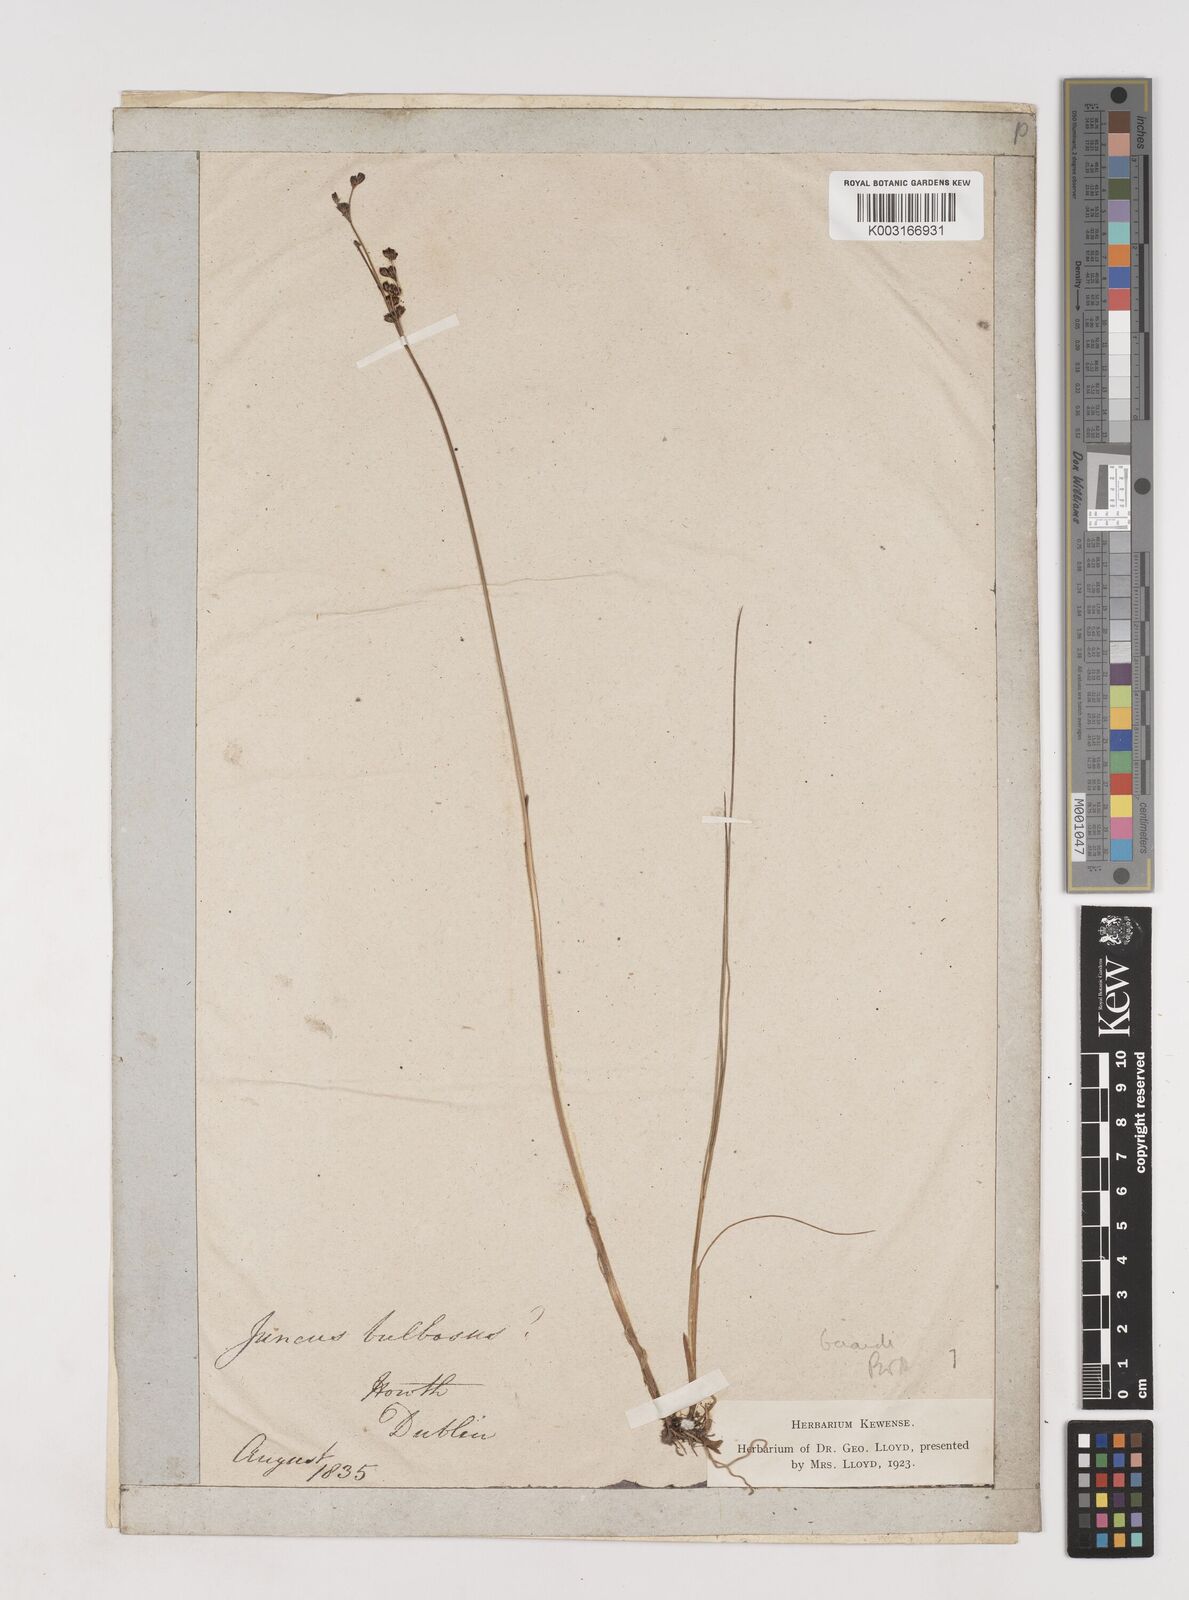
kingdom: Plantae
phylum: Tracheophyta
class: Liliopsida
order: Poales
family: Juncaceae
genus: Juncus
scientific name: Juncus gerardi
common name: Saltmarsh rush
